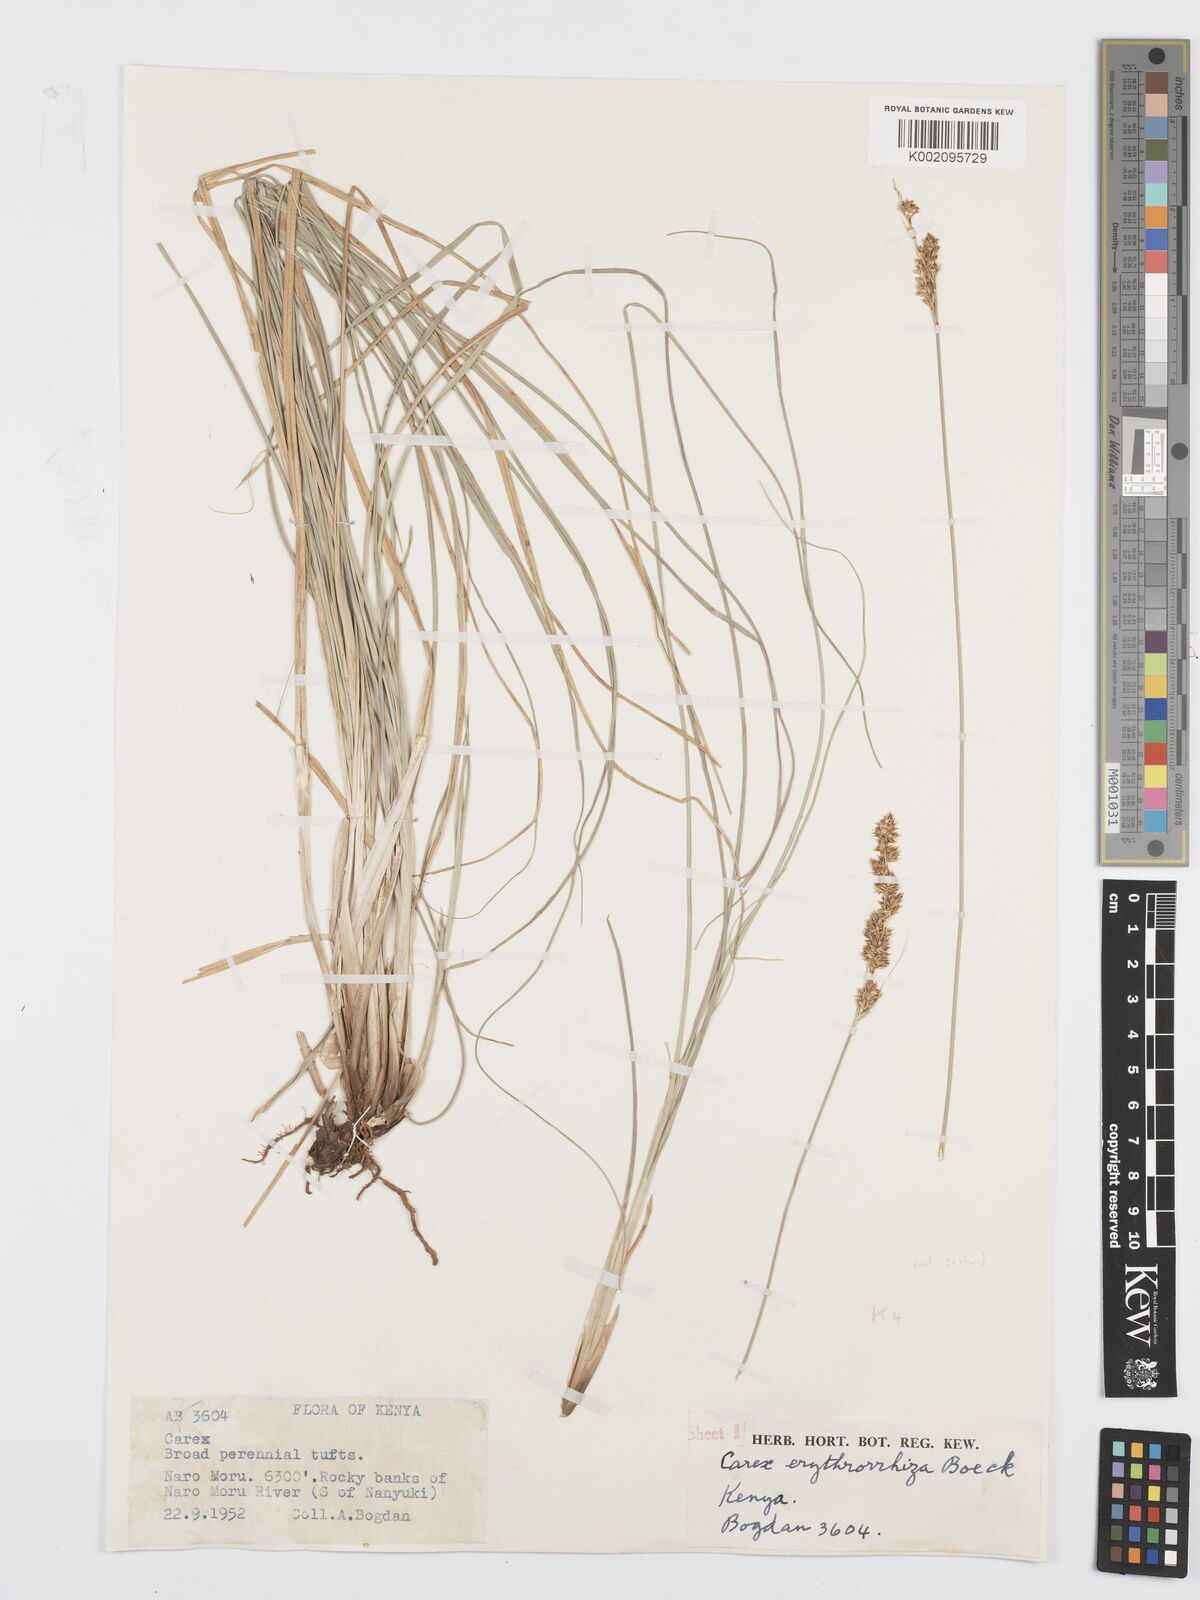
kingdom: Plantae
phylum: Tracheophyta
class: Liliopsida
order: Poales
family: Cyperaceae
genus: Carex
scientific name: Carex erythrorrhiza
